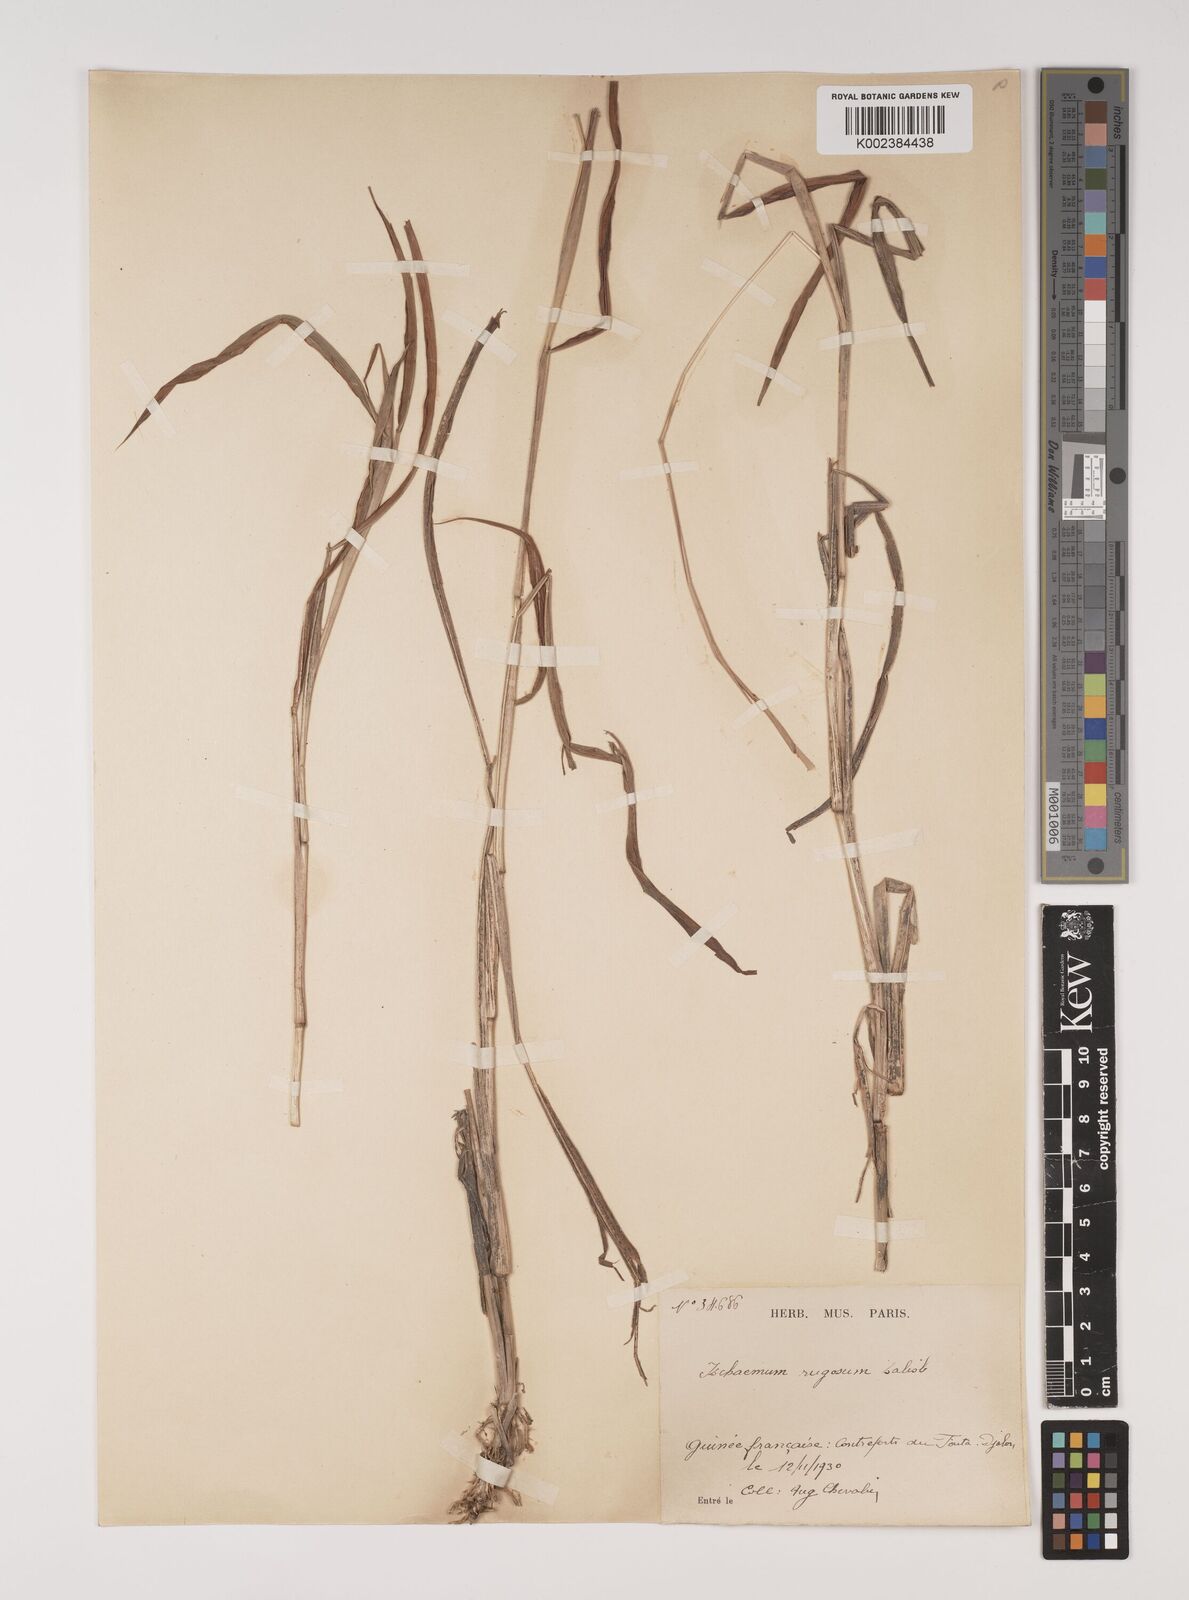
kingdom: Plantae
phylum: Tracheophyta
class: Liliopsida
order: Poales
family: Poaceae
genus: Ischaemum
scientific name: Ischaemum rugosum
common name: Saramatta grass
